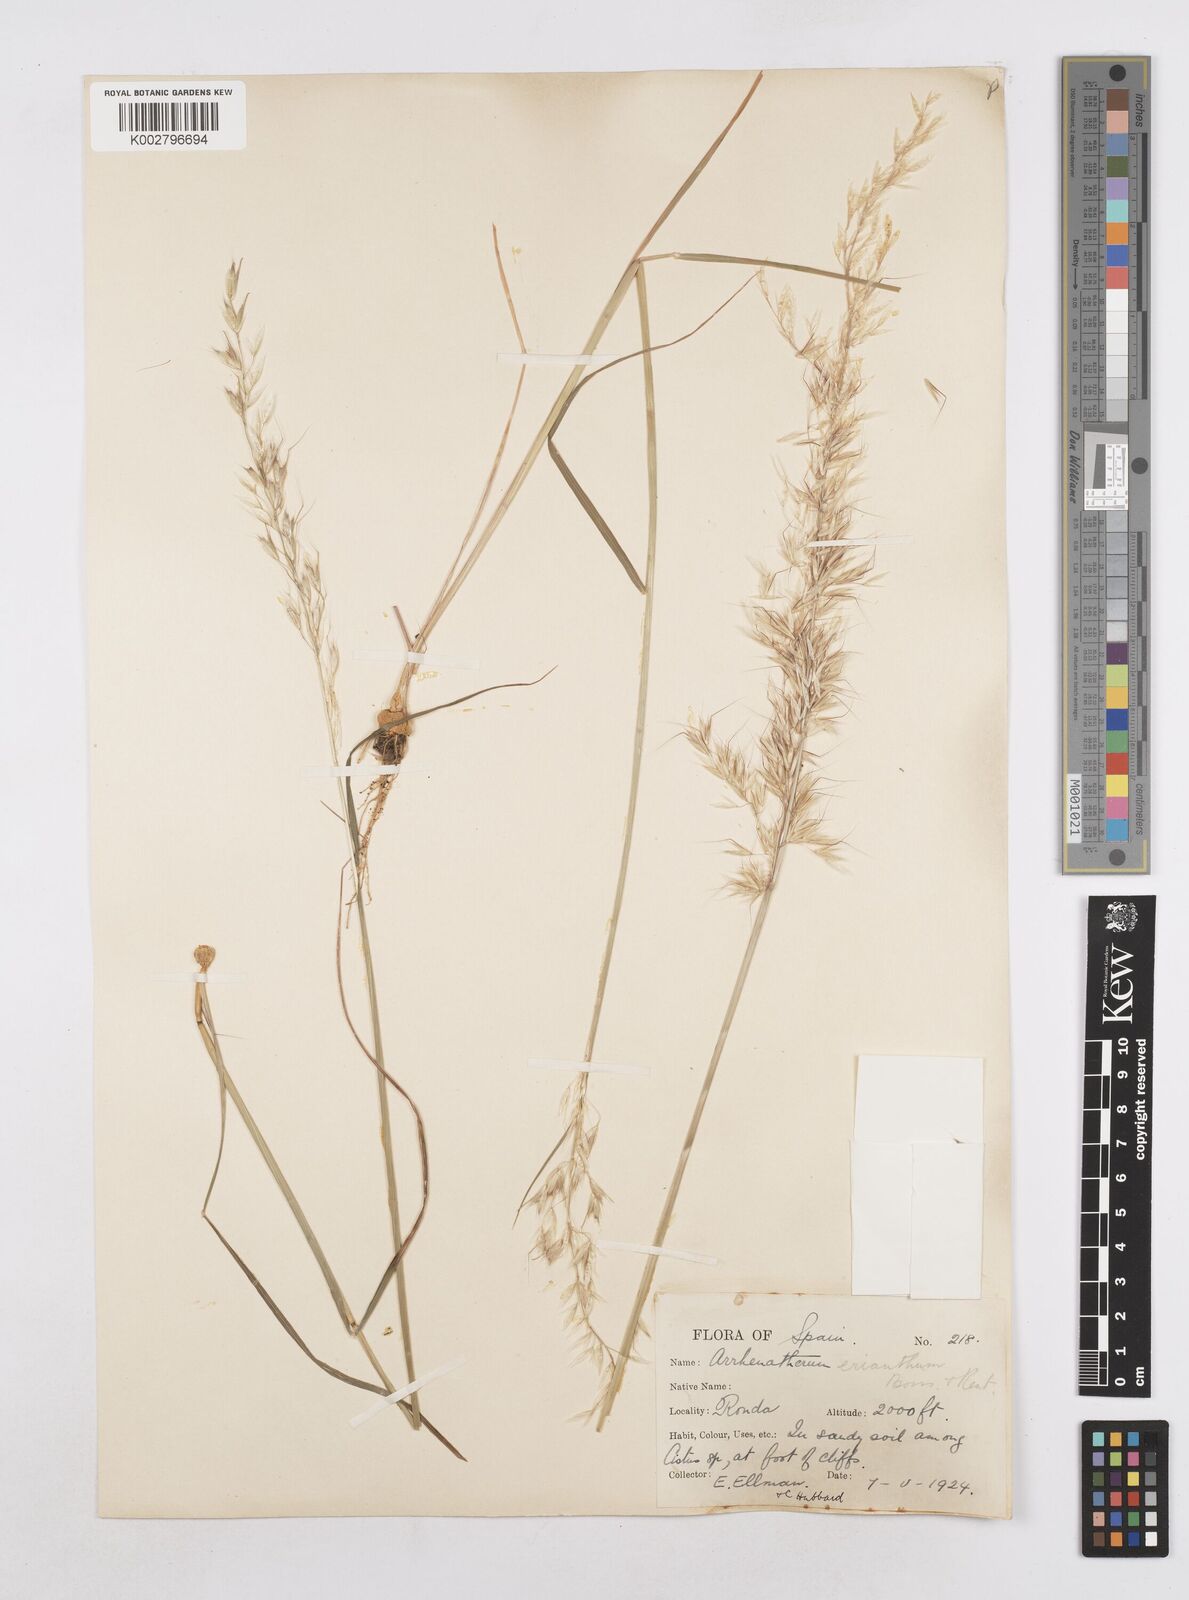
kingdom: Plantae
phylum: Tracheophyta
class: Liliopsida
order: Poales
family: Poaceae
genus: Arrhenatherum
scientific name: Arrhenatherum album
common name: Tall oat grass
